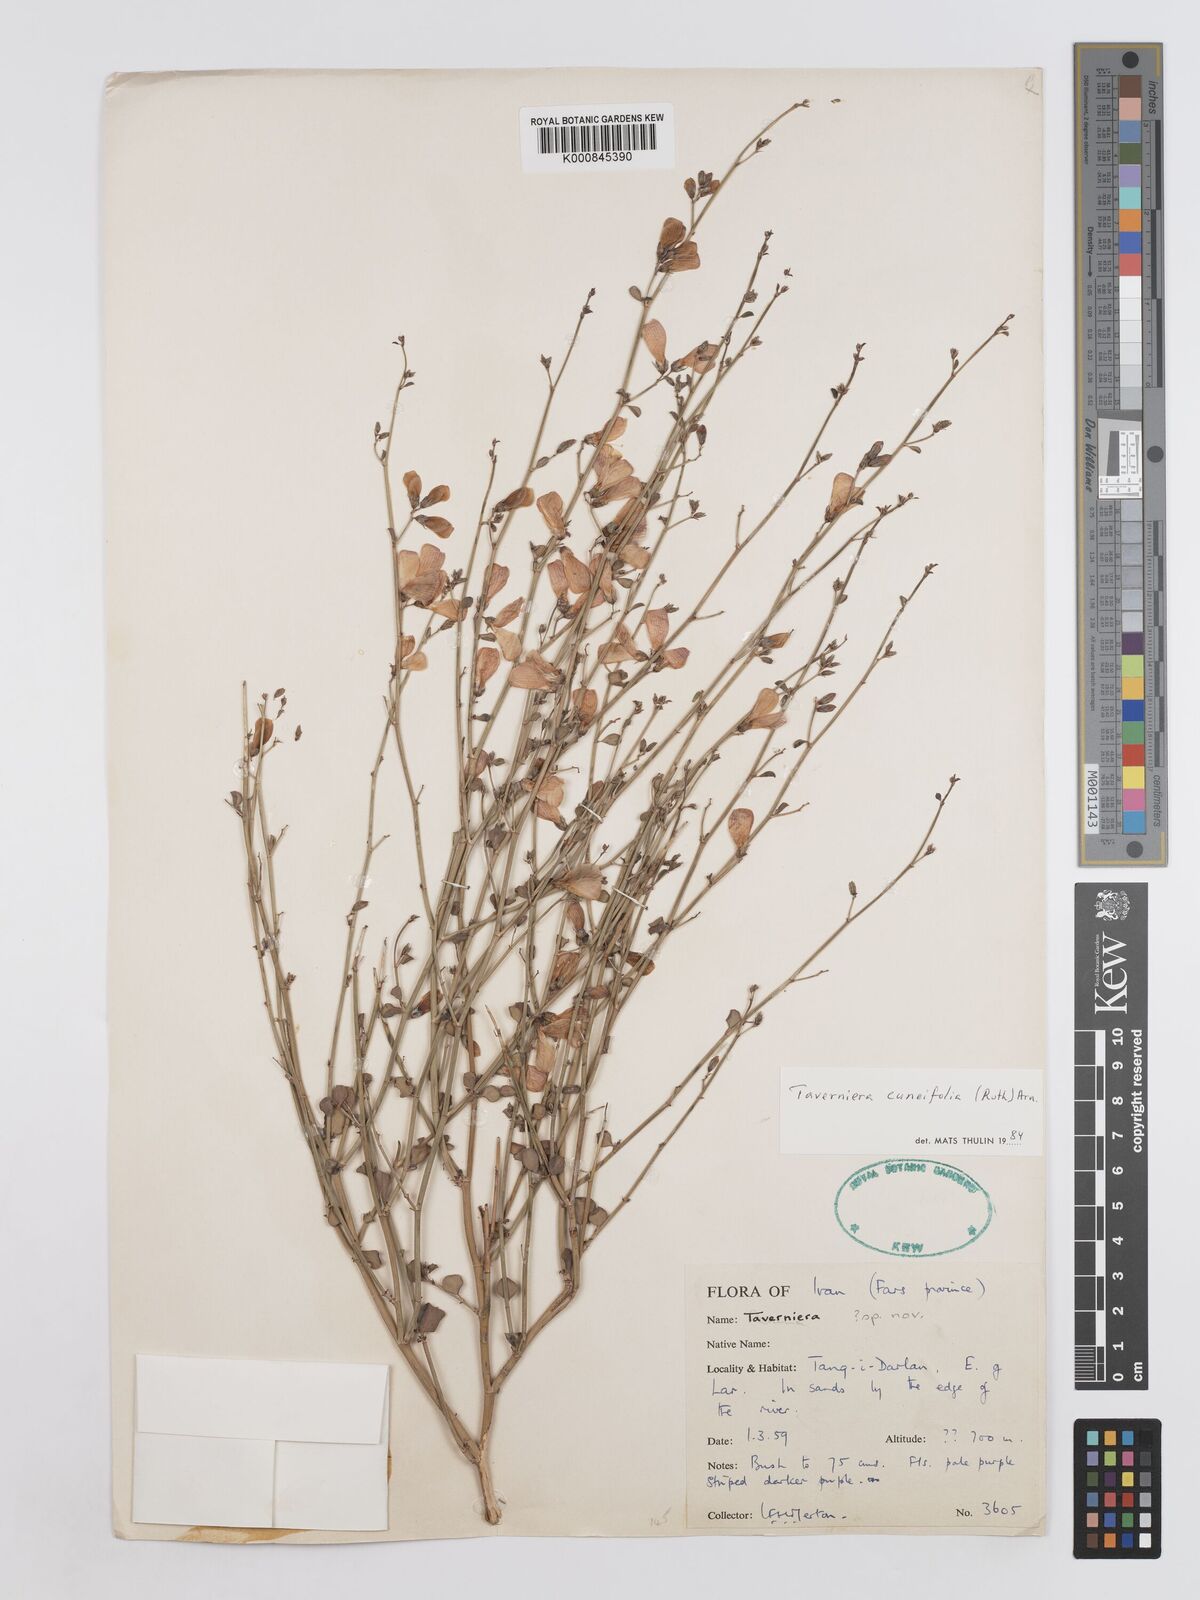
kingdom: Plantae
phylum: Tracheophyta
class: Magnoliopsida
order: Fabales
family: Fabaceae
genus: Taverniera
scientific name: Taverniera
